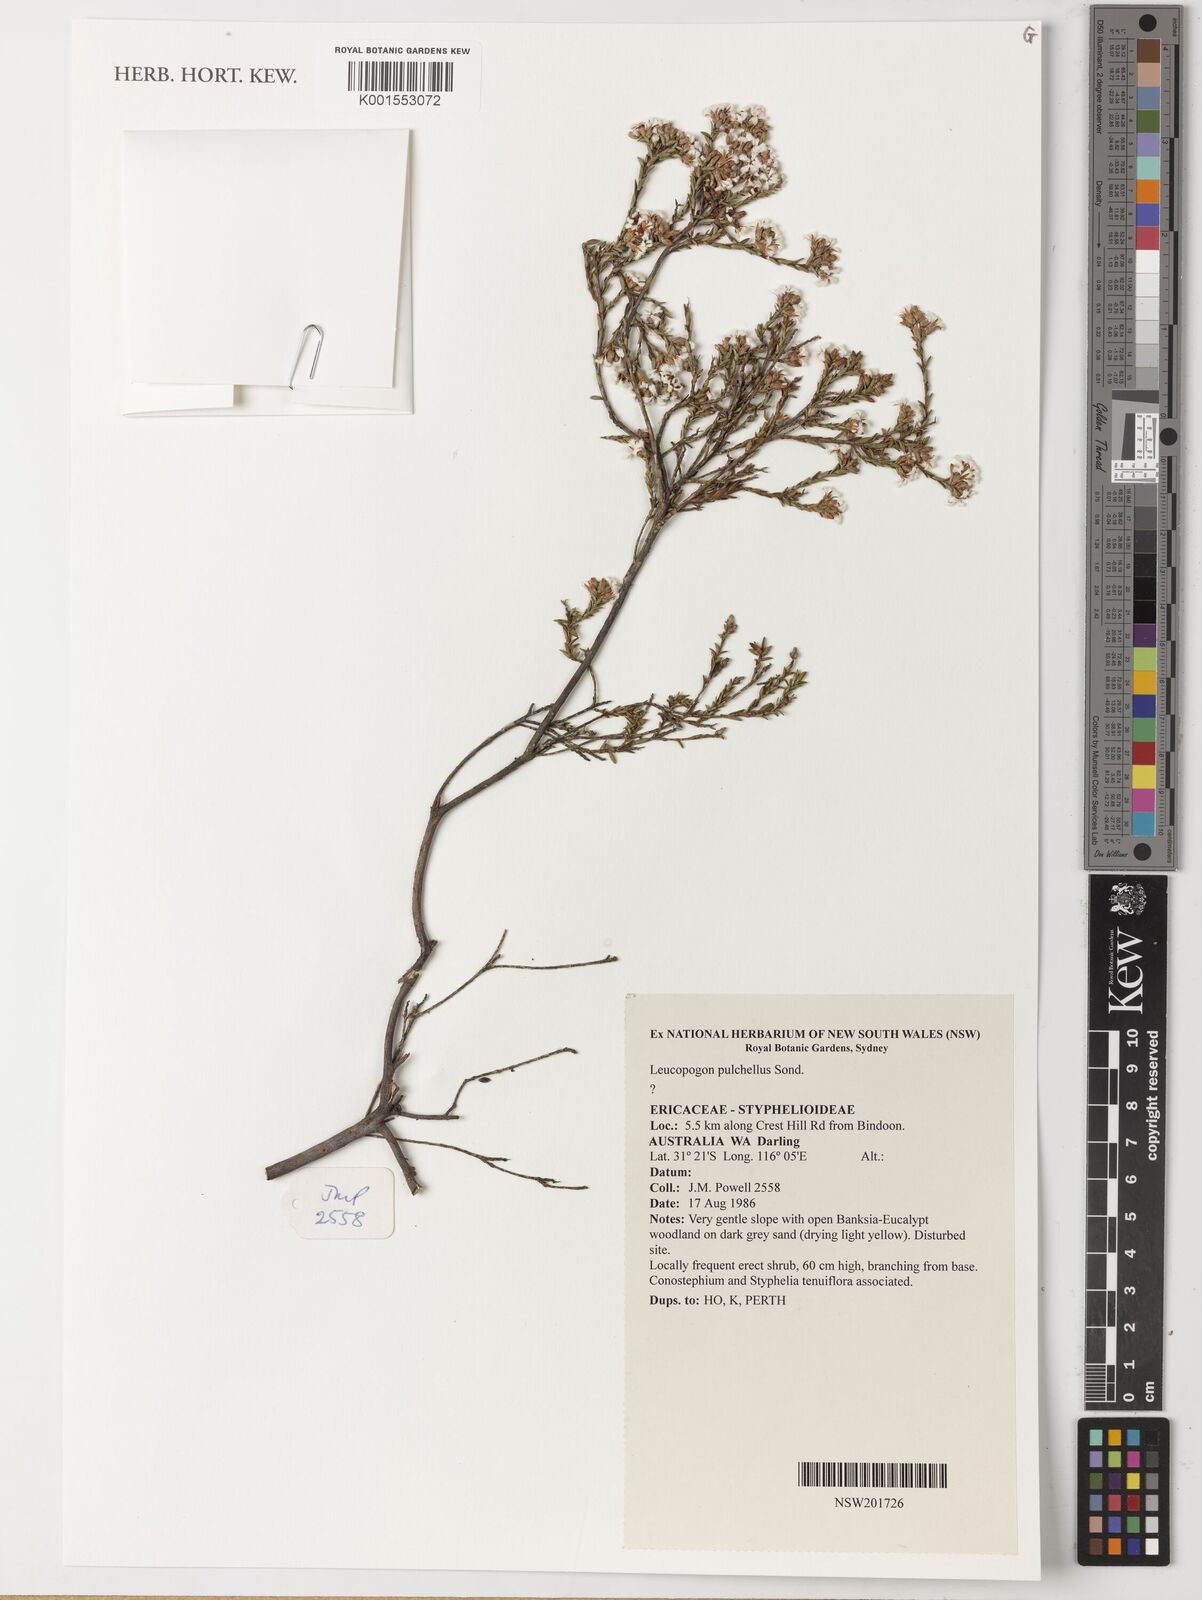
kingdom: Plantae
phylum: Tracheophyta
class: Magnoliopsida
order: Ericales
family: Ericaceae
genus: Styphelia
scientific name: Styphelia
